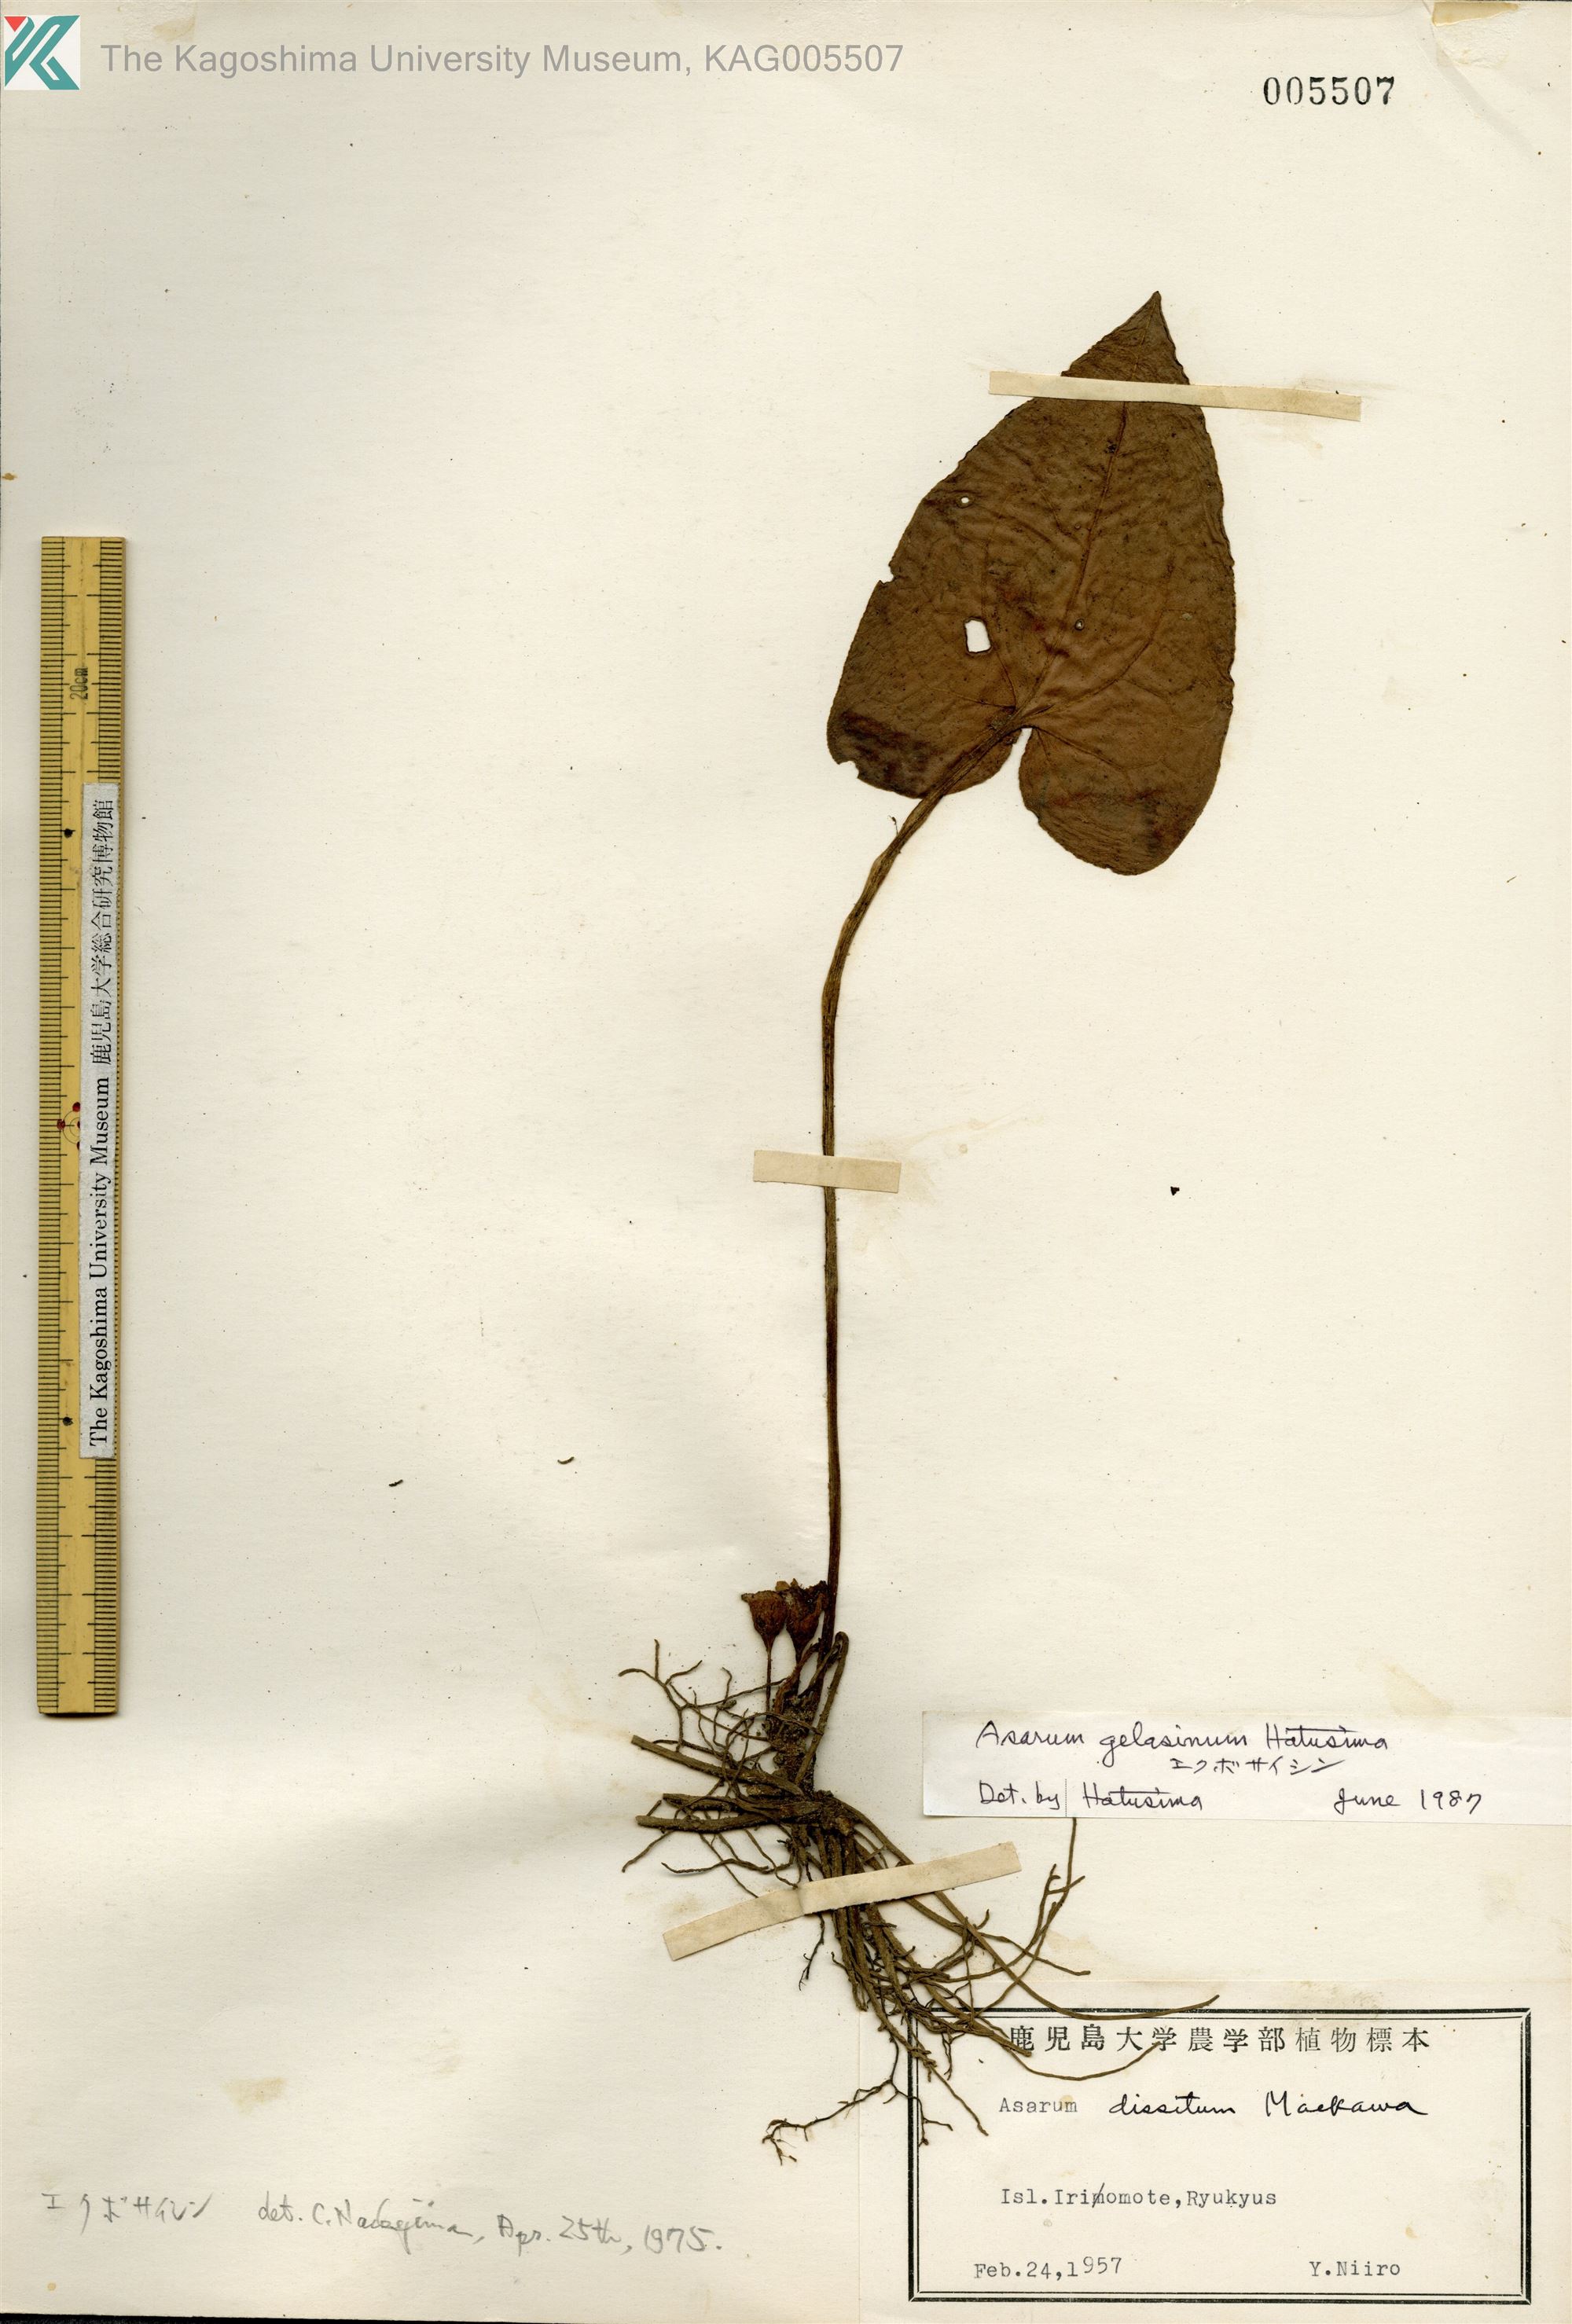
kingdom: Plantae
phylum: Tracheophyta
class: Magnoliopsida
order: Piperales
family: Aristolochiaceae
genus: Asarum
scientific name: Asarum gelasinum
